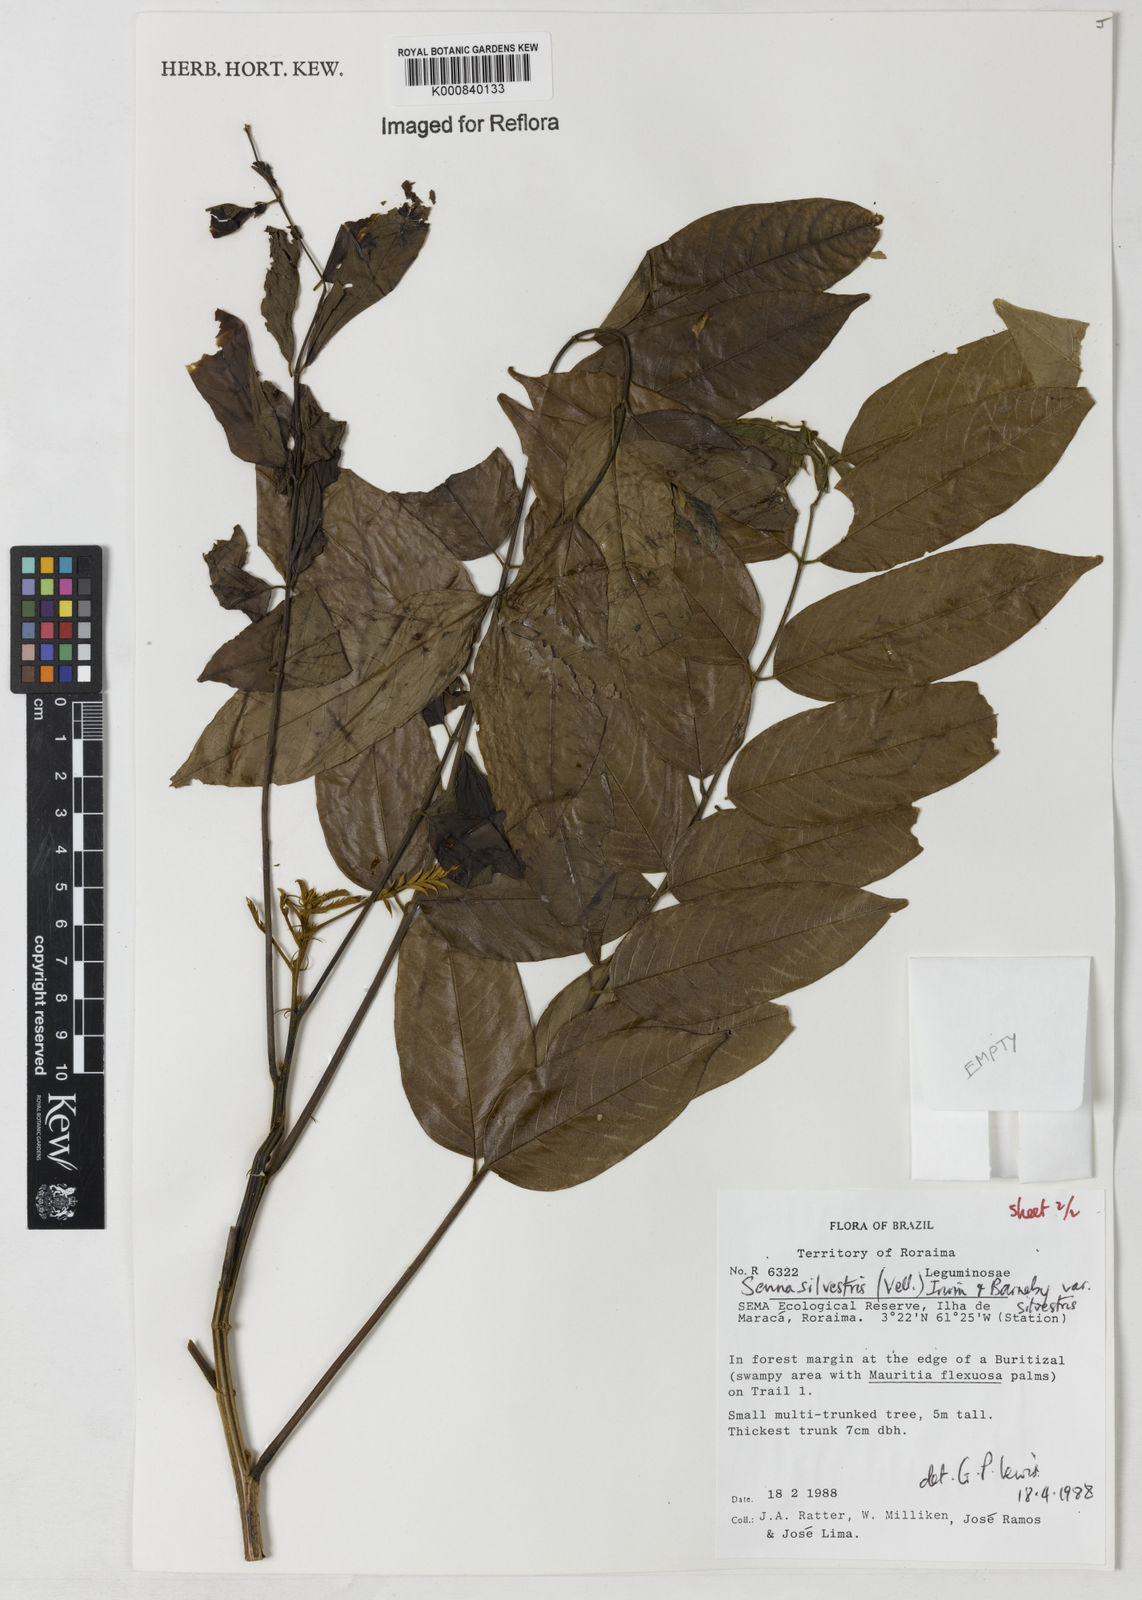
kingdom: Plantae
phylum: Tracheophyta
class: Magnoliopsida
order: Fabales
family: Fabaceae
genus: Senna
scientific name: Senna silvestris
